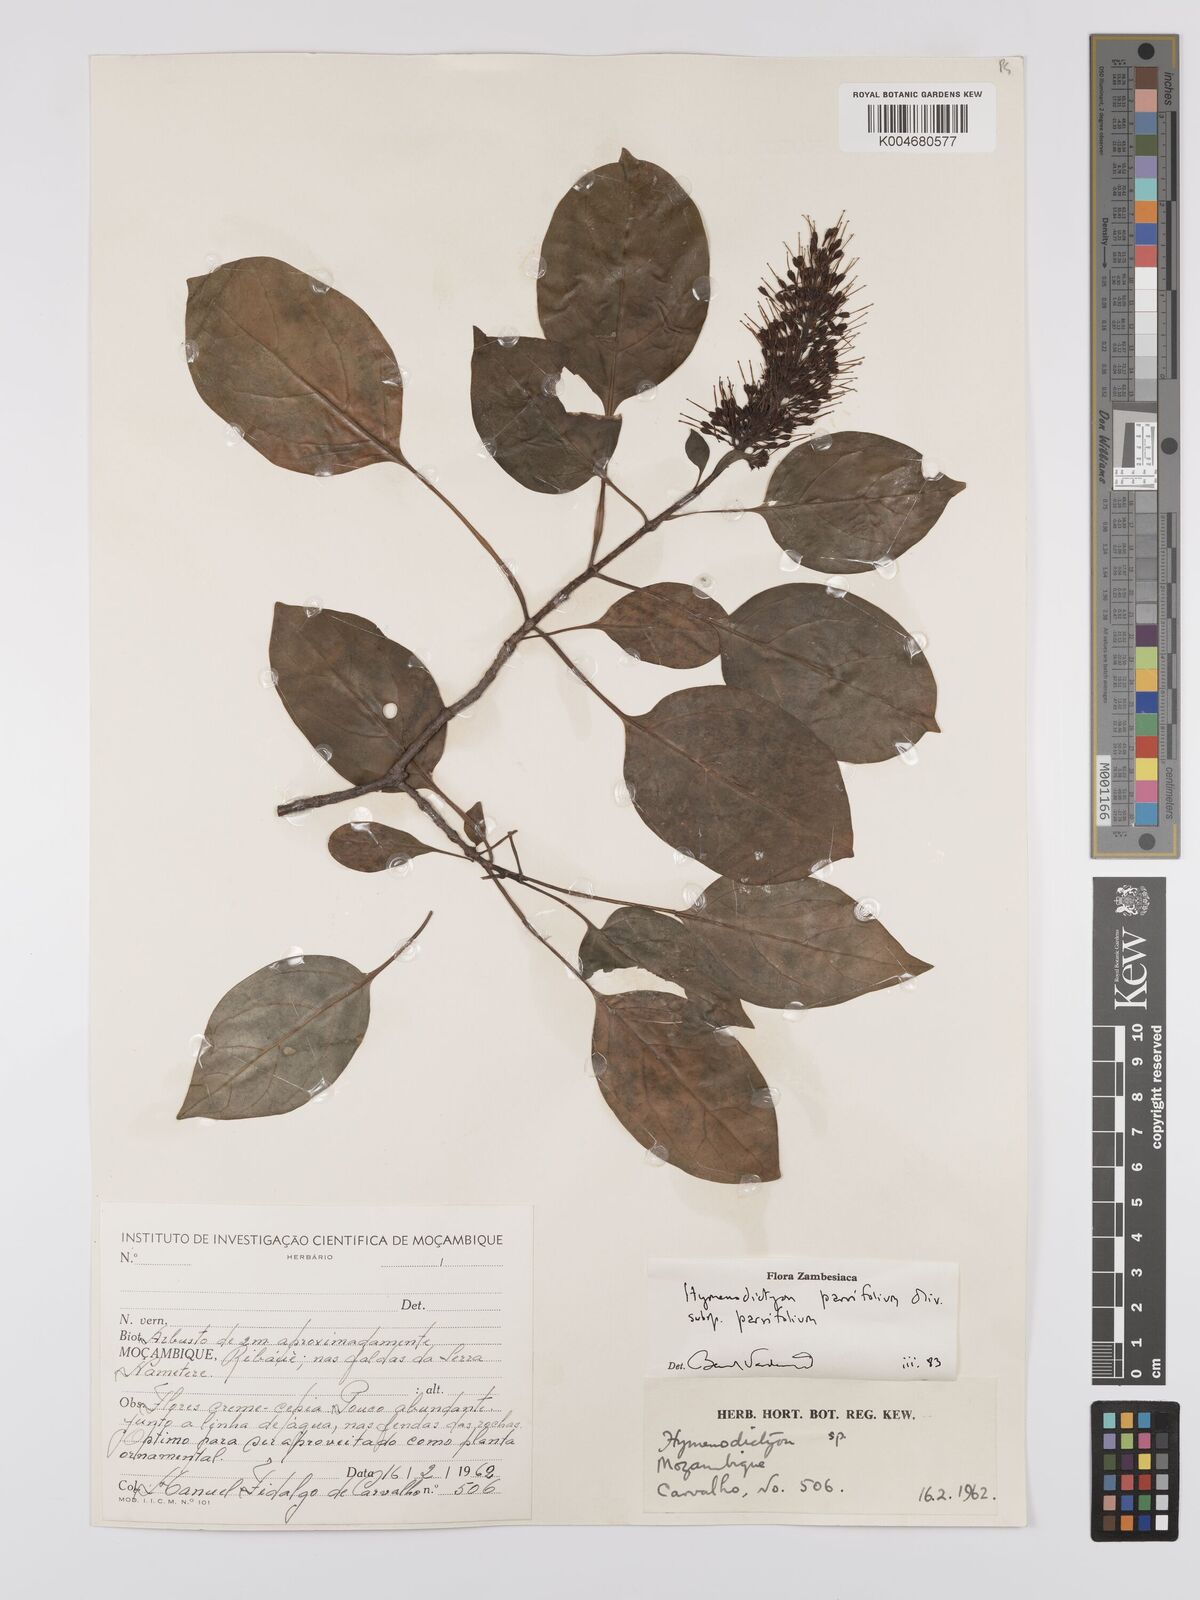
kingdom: Plantae
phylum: Tracheophyta
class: Magnoliopsida
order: Gentianales
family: Rubiaceae
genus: Hymenodictyon
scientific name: Hymenodictyon parvifolium
